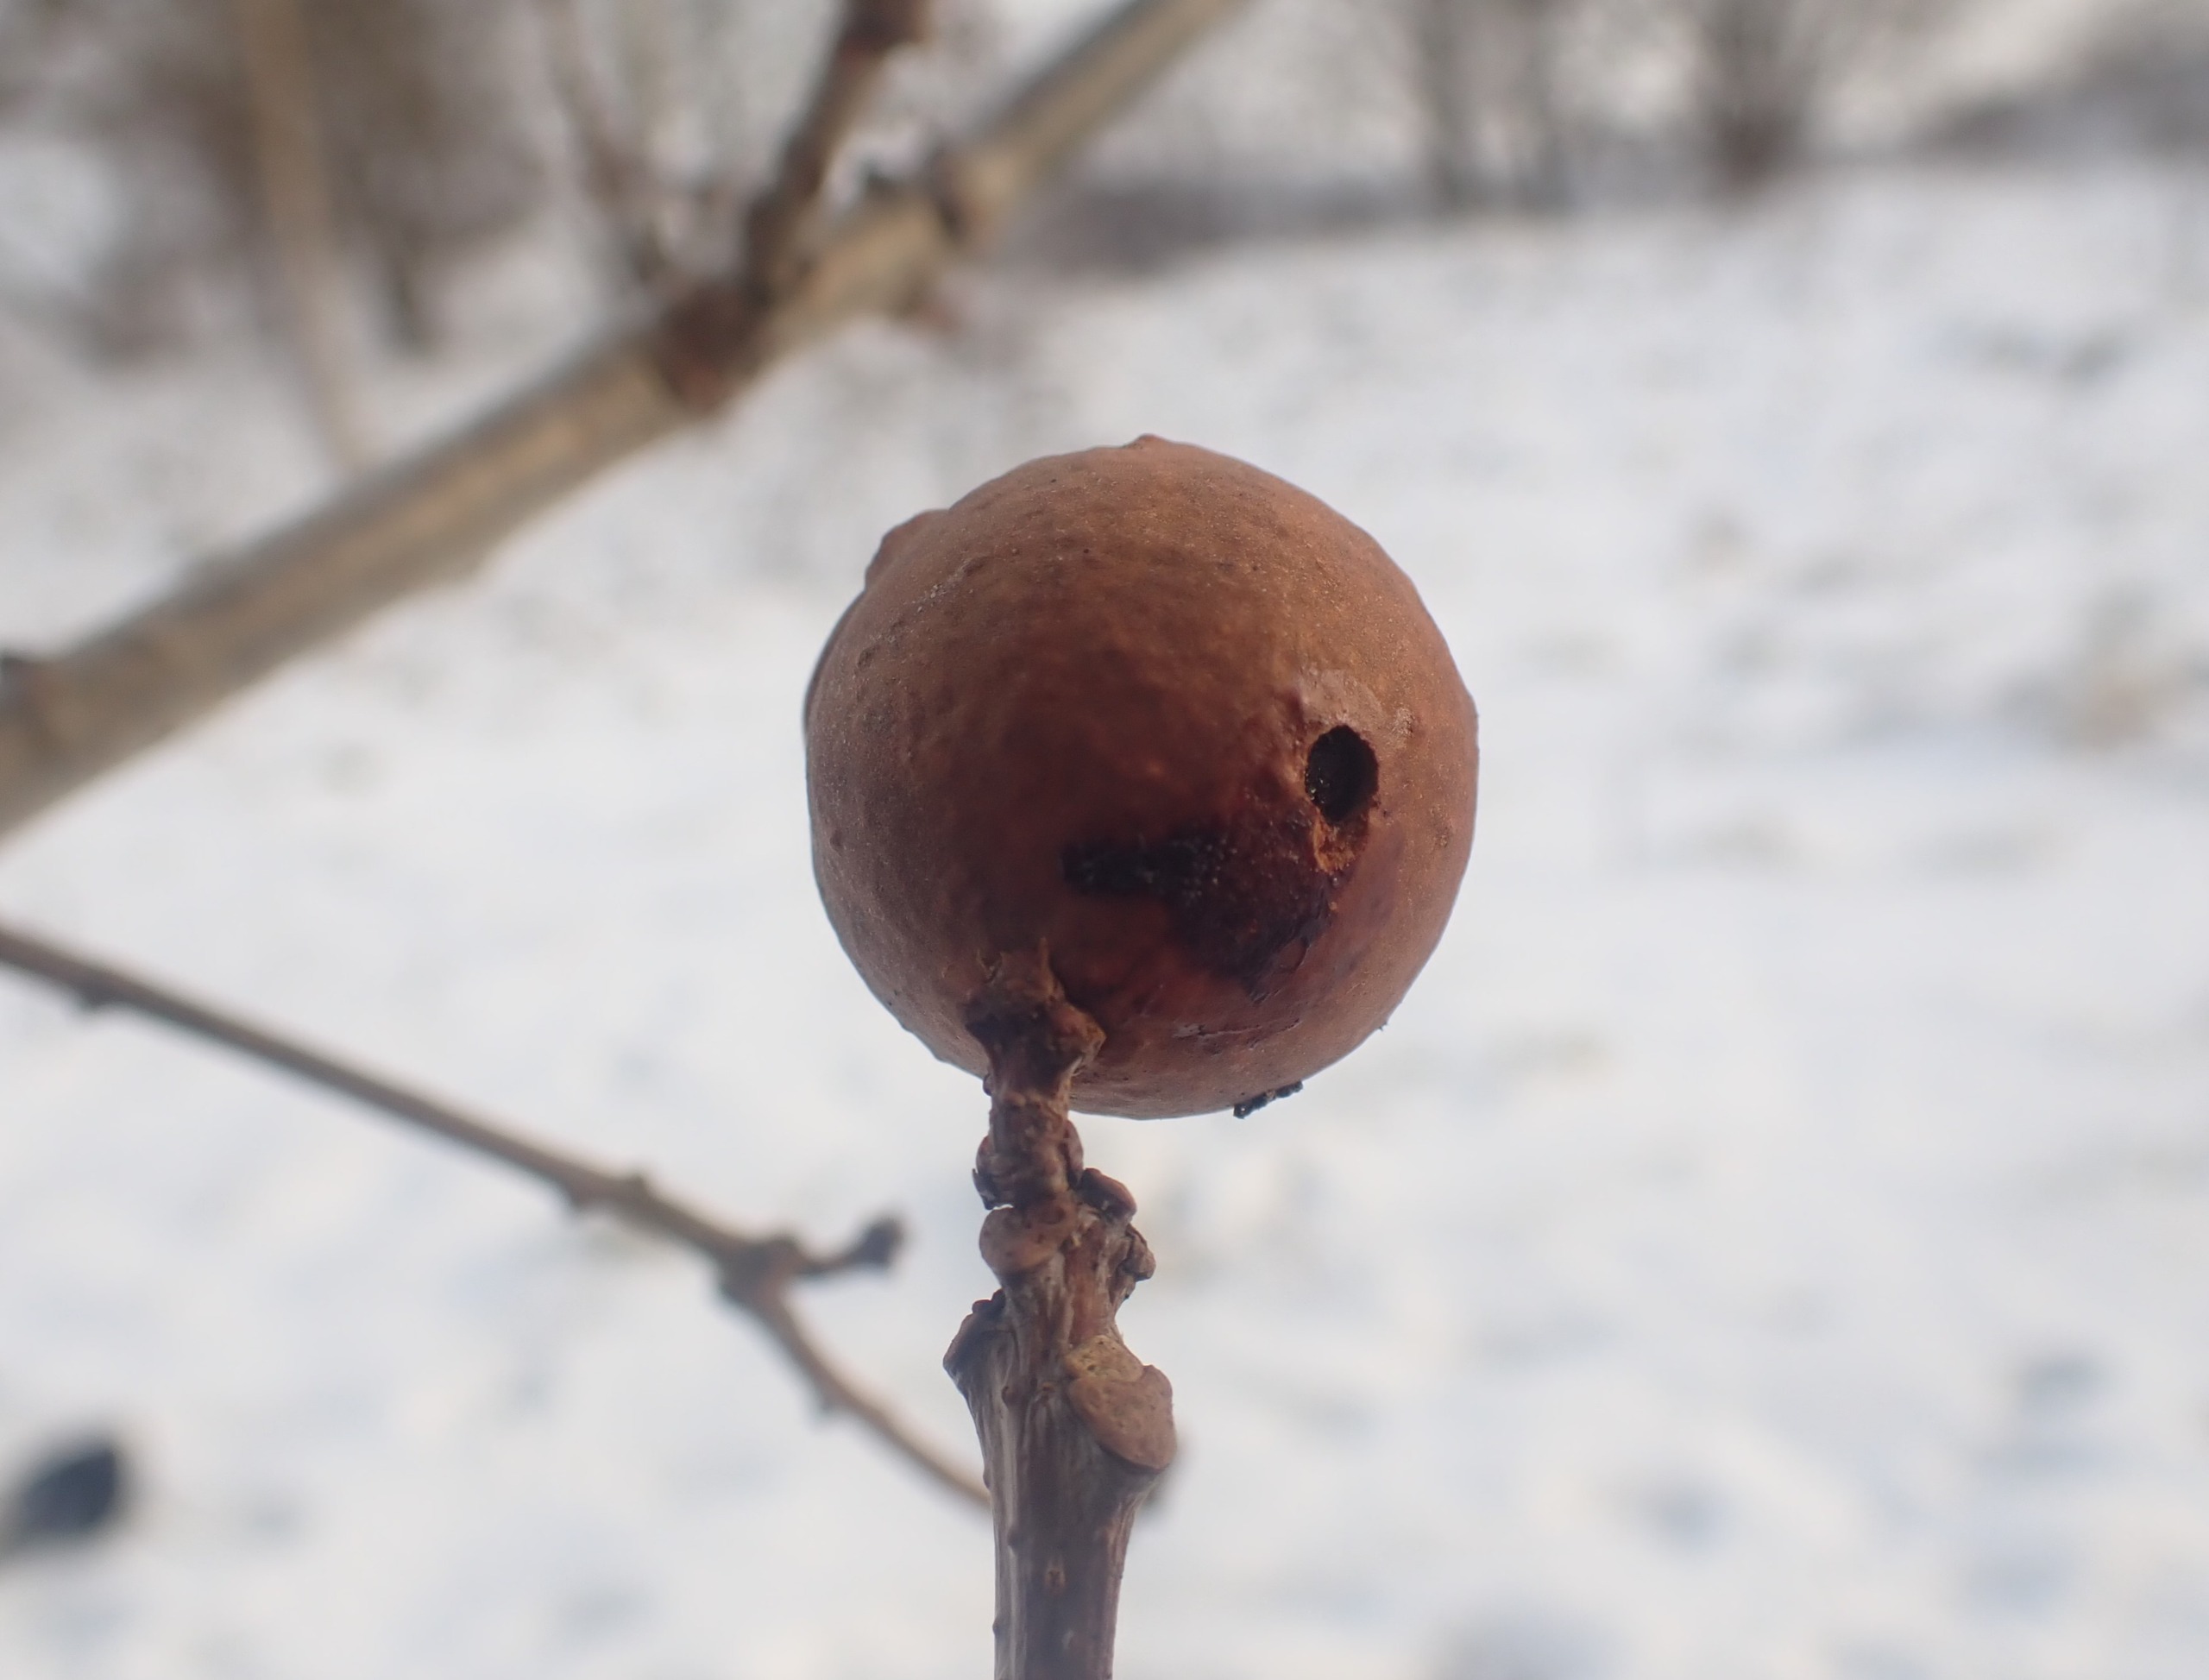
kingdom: Animalia
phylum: Arthropoda
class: Insecta
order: Hymenoptera
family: Cynipidae
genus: Andricus
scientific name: Andricus kollari
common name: Marmorkugle-galhveps
